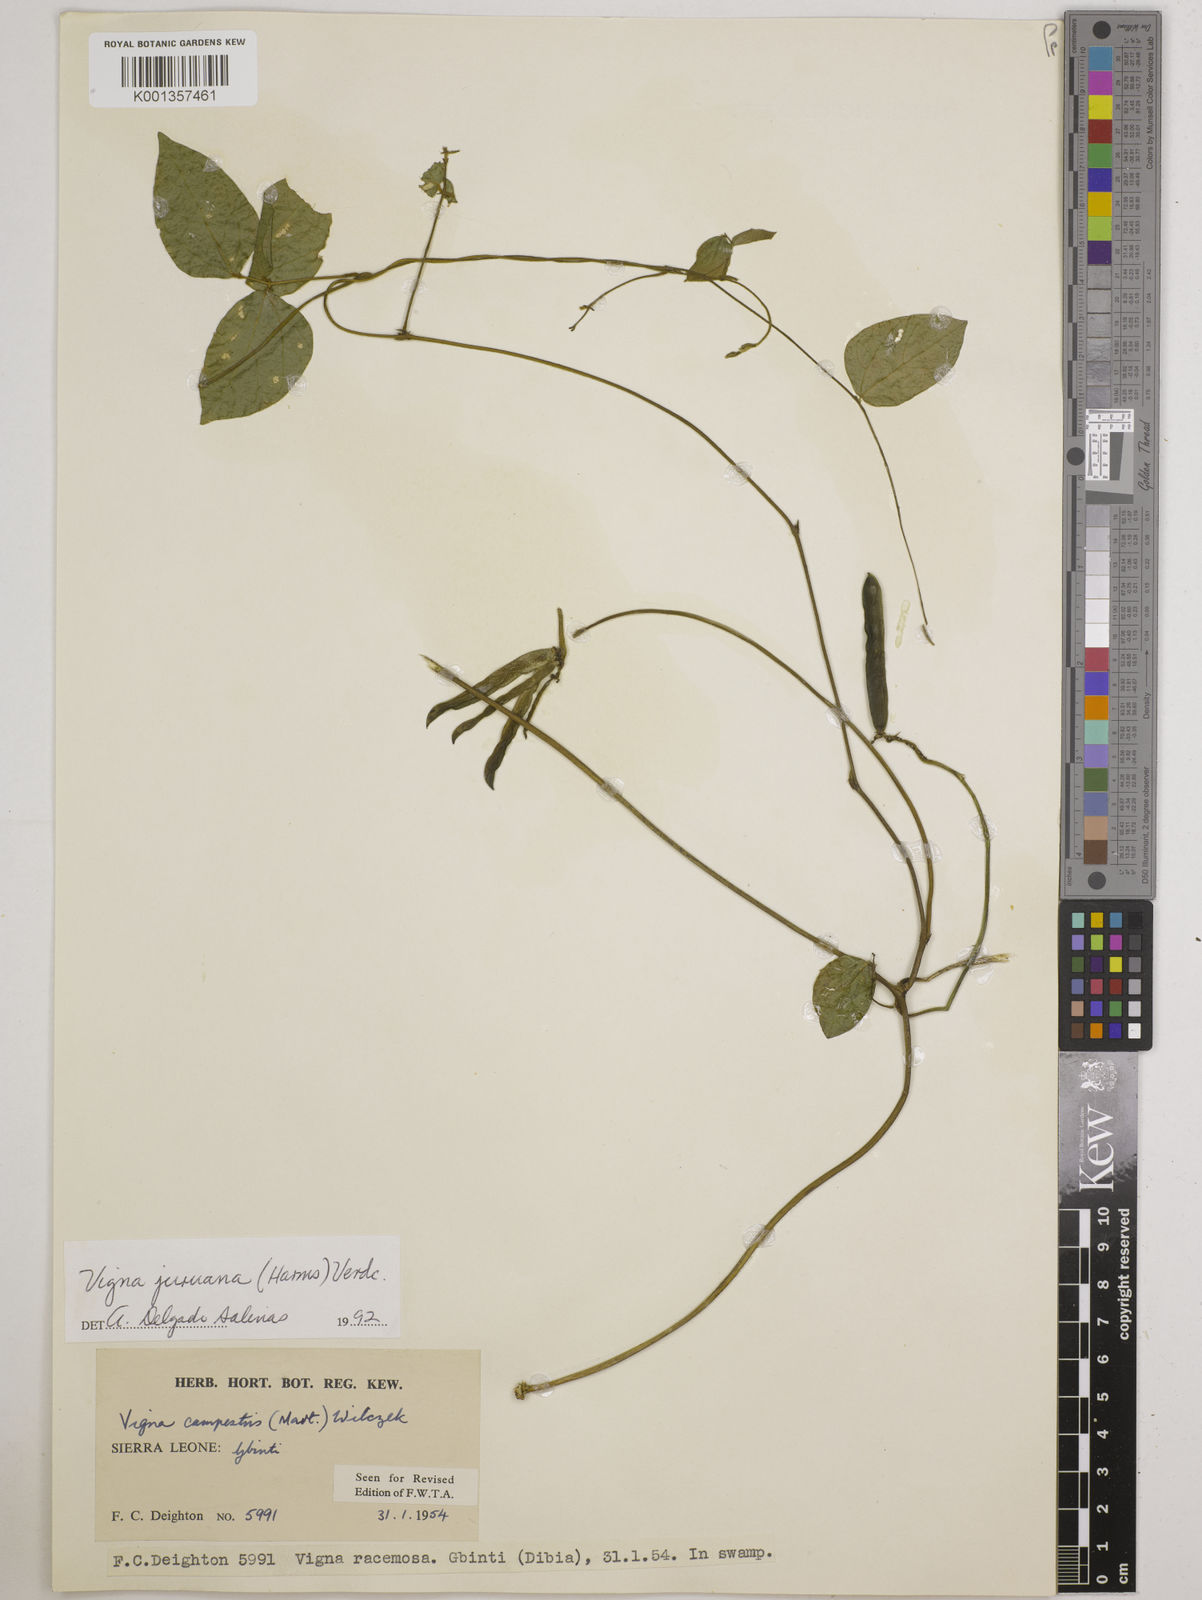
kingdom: Plantae
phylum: Tracheophyta
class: Magnoliopsida
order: Fabales
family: Fabaceae
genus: Vigna
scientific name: Vigna juruana
